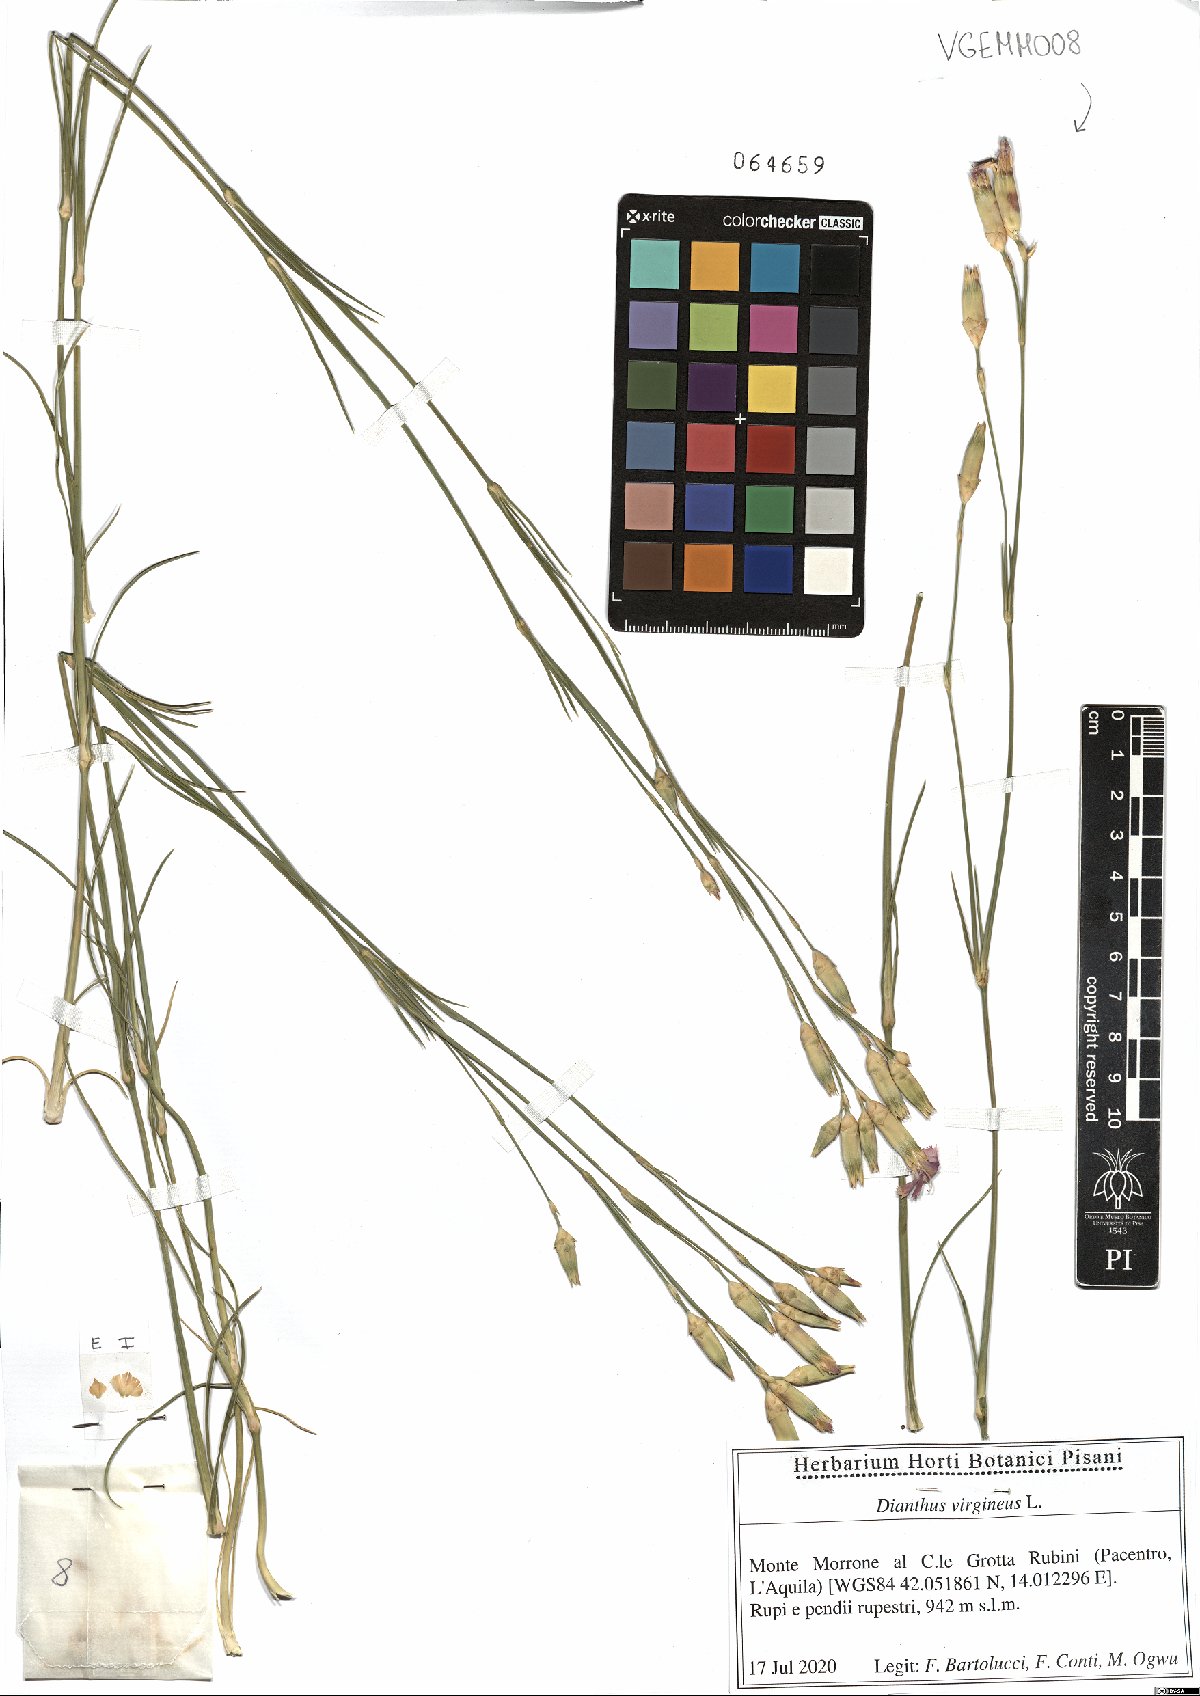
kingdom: Plantae
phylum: Tracheophyta
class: Magnoliopsida
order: Caryophyllales
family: Caryophyllaceae
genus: Dianthus
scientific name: Dianthus virgineus
